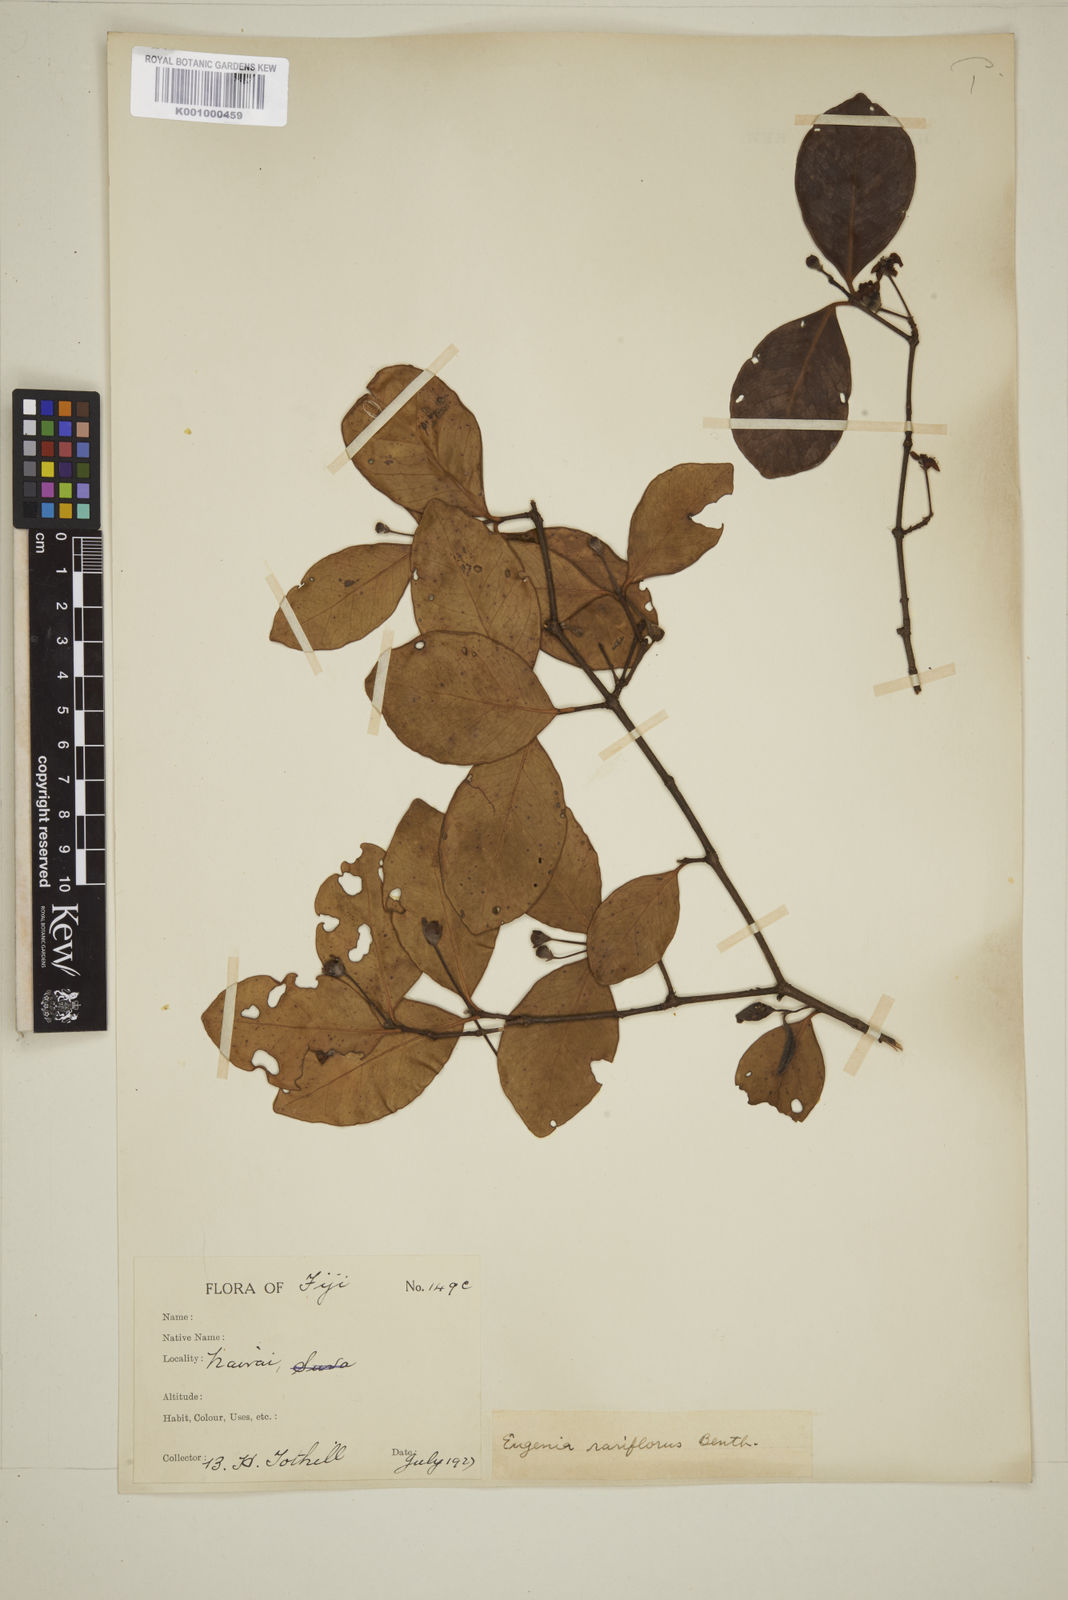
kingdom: Plantae
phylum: Tracheophyta
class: Magnoliopsida
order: Myrtales
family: Myrtaceae
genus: Eugenia
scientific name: Eugenia reinwardtiana
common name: Cedar bay-cherry
